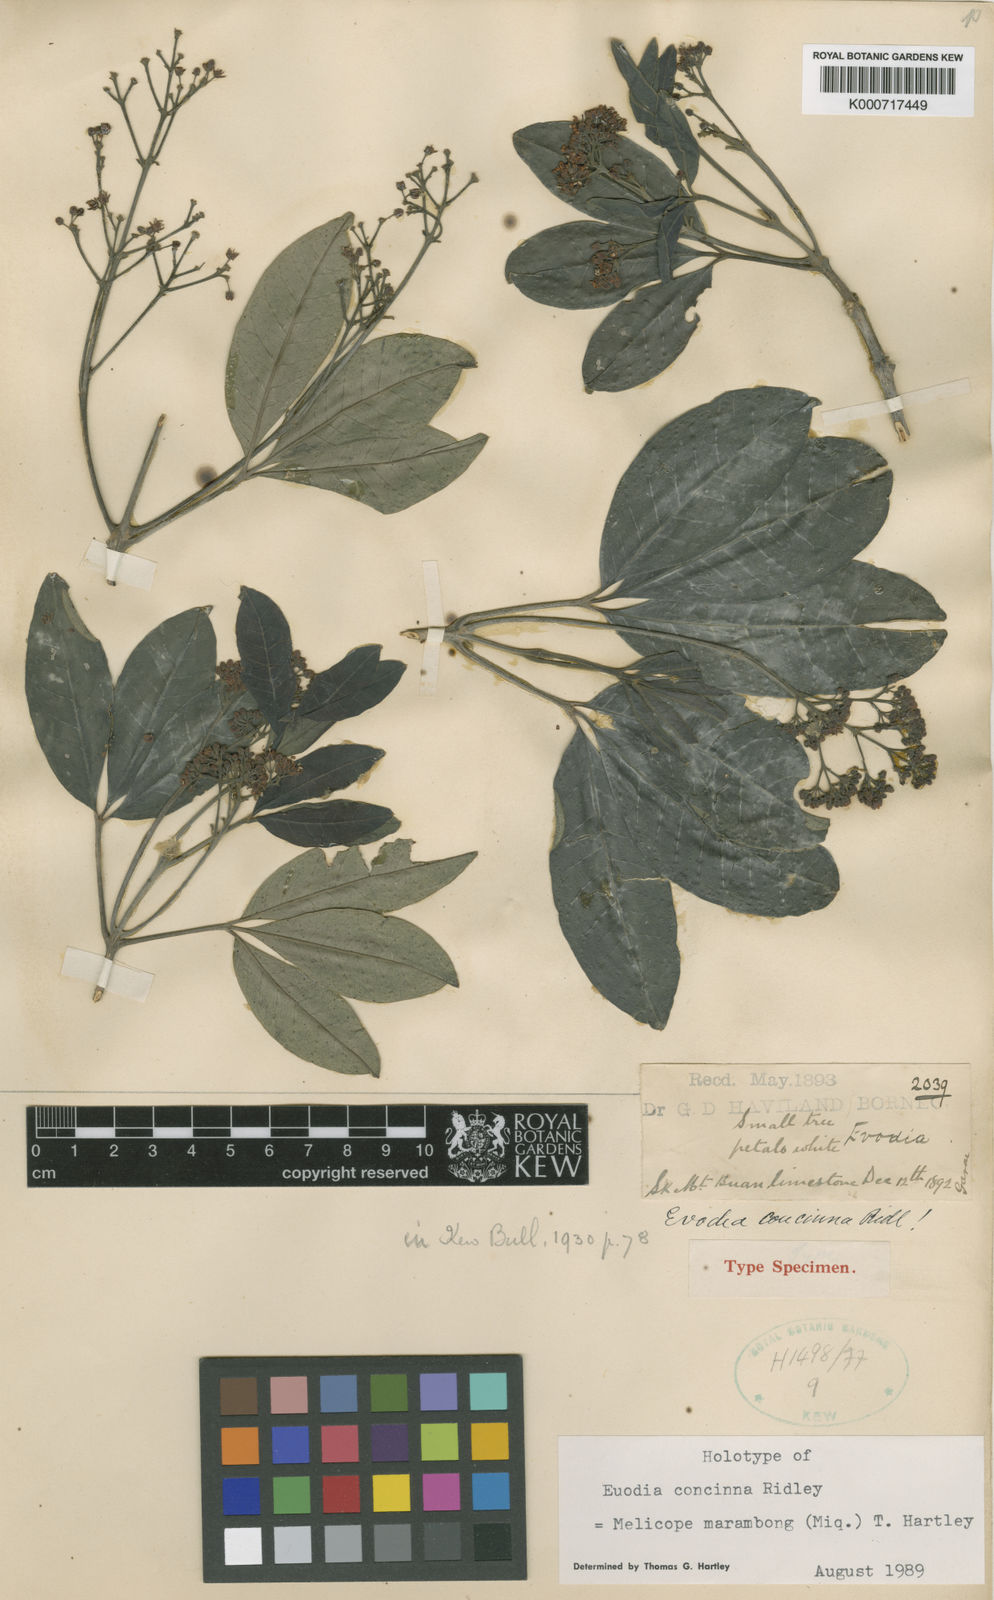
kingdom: Plantae
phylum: Tracheophyta
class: Magnoliopsida
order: Sapindales
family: Rutaceae
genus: Melicope
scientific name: Melicope
